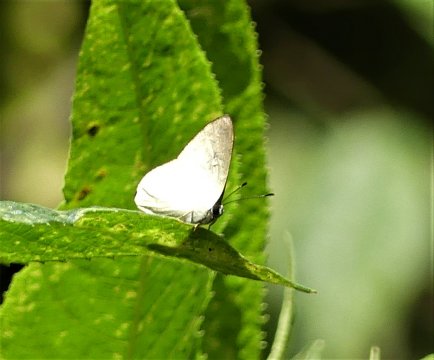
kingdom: Animalia
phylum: Arthropoda
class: Insecta
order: Lepidoptera
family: Lycaenidae
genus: Euselasia
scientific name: Euselasia cataleuca
